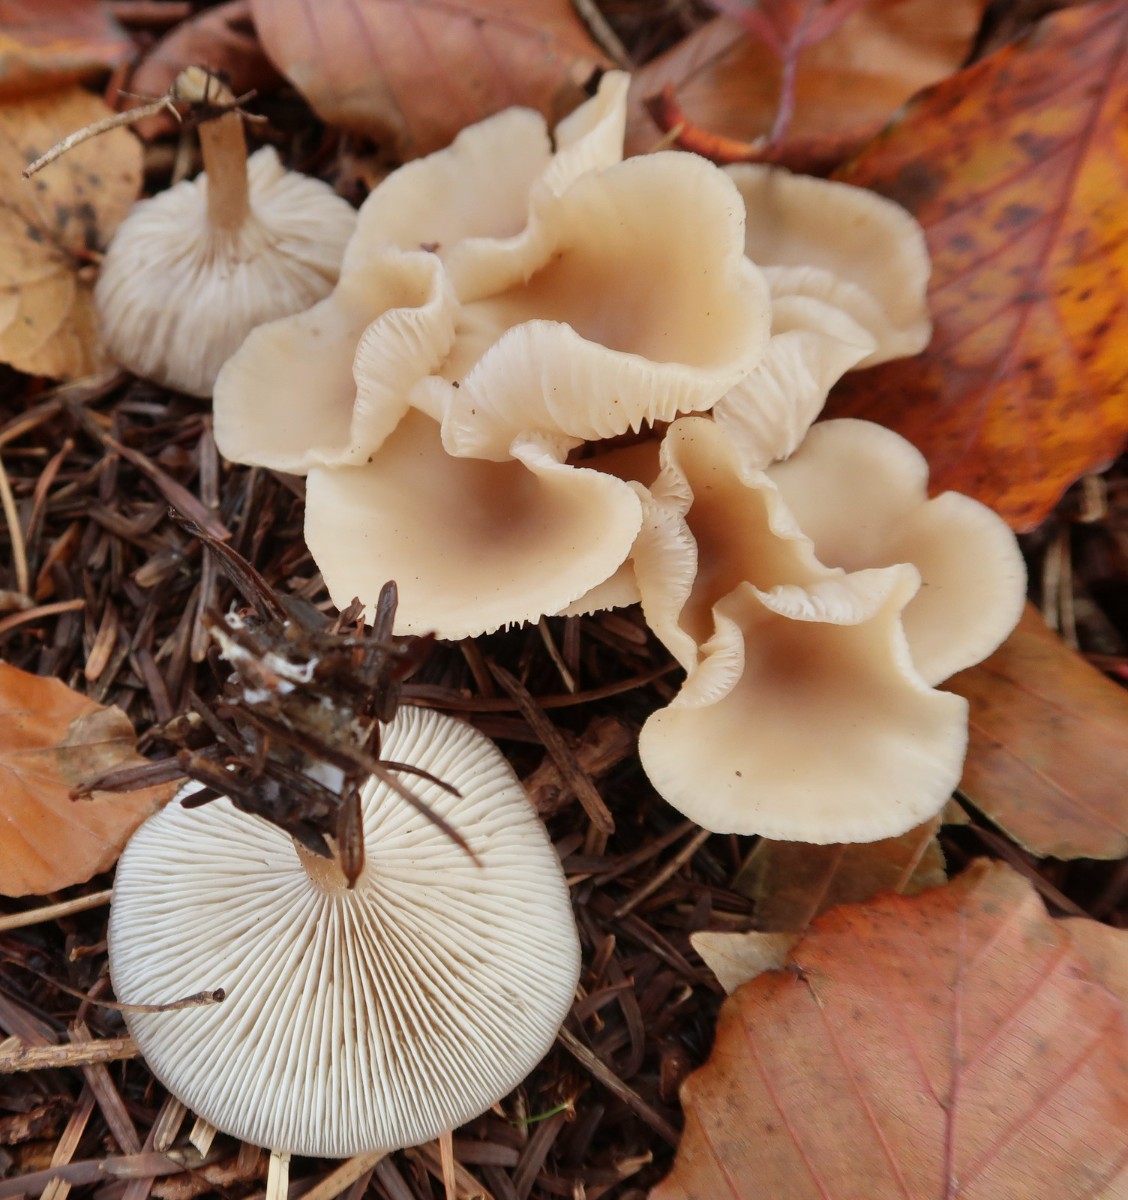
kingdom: Fungi
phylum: Basidiomycota
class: Agaricomycetes
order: Agaricales
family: Tricholomataceae
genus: Clitocybe
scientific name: Clitocybe fragrans
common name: vellugtende tragthat
